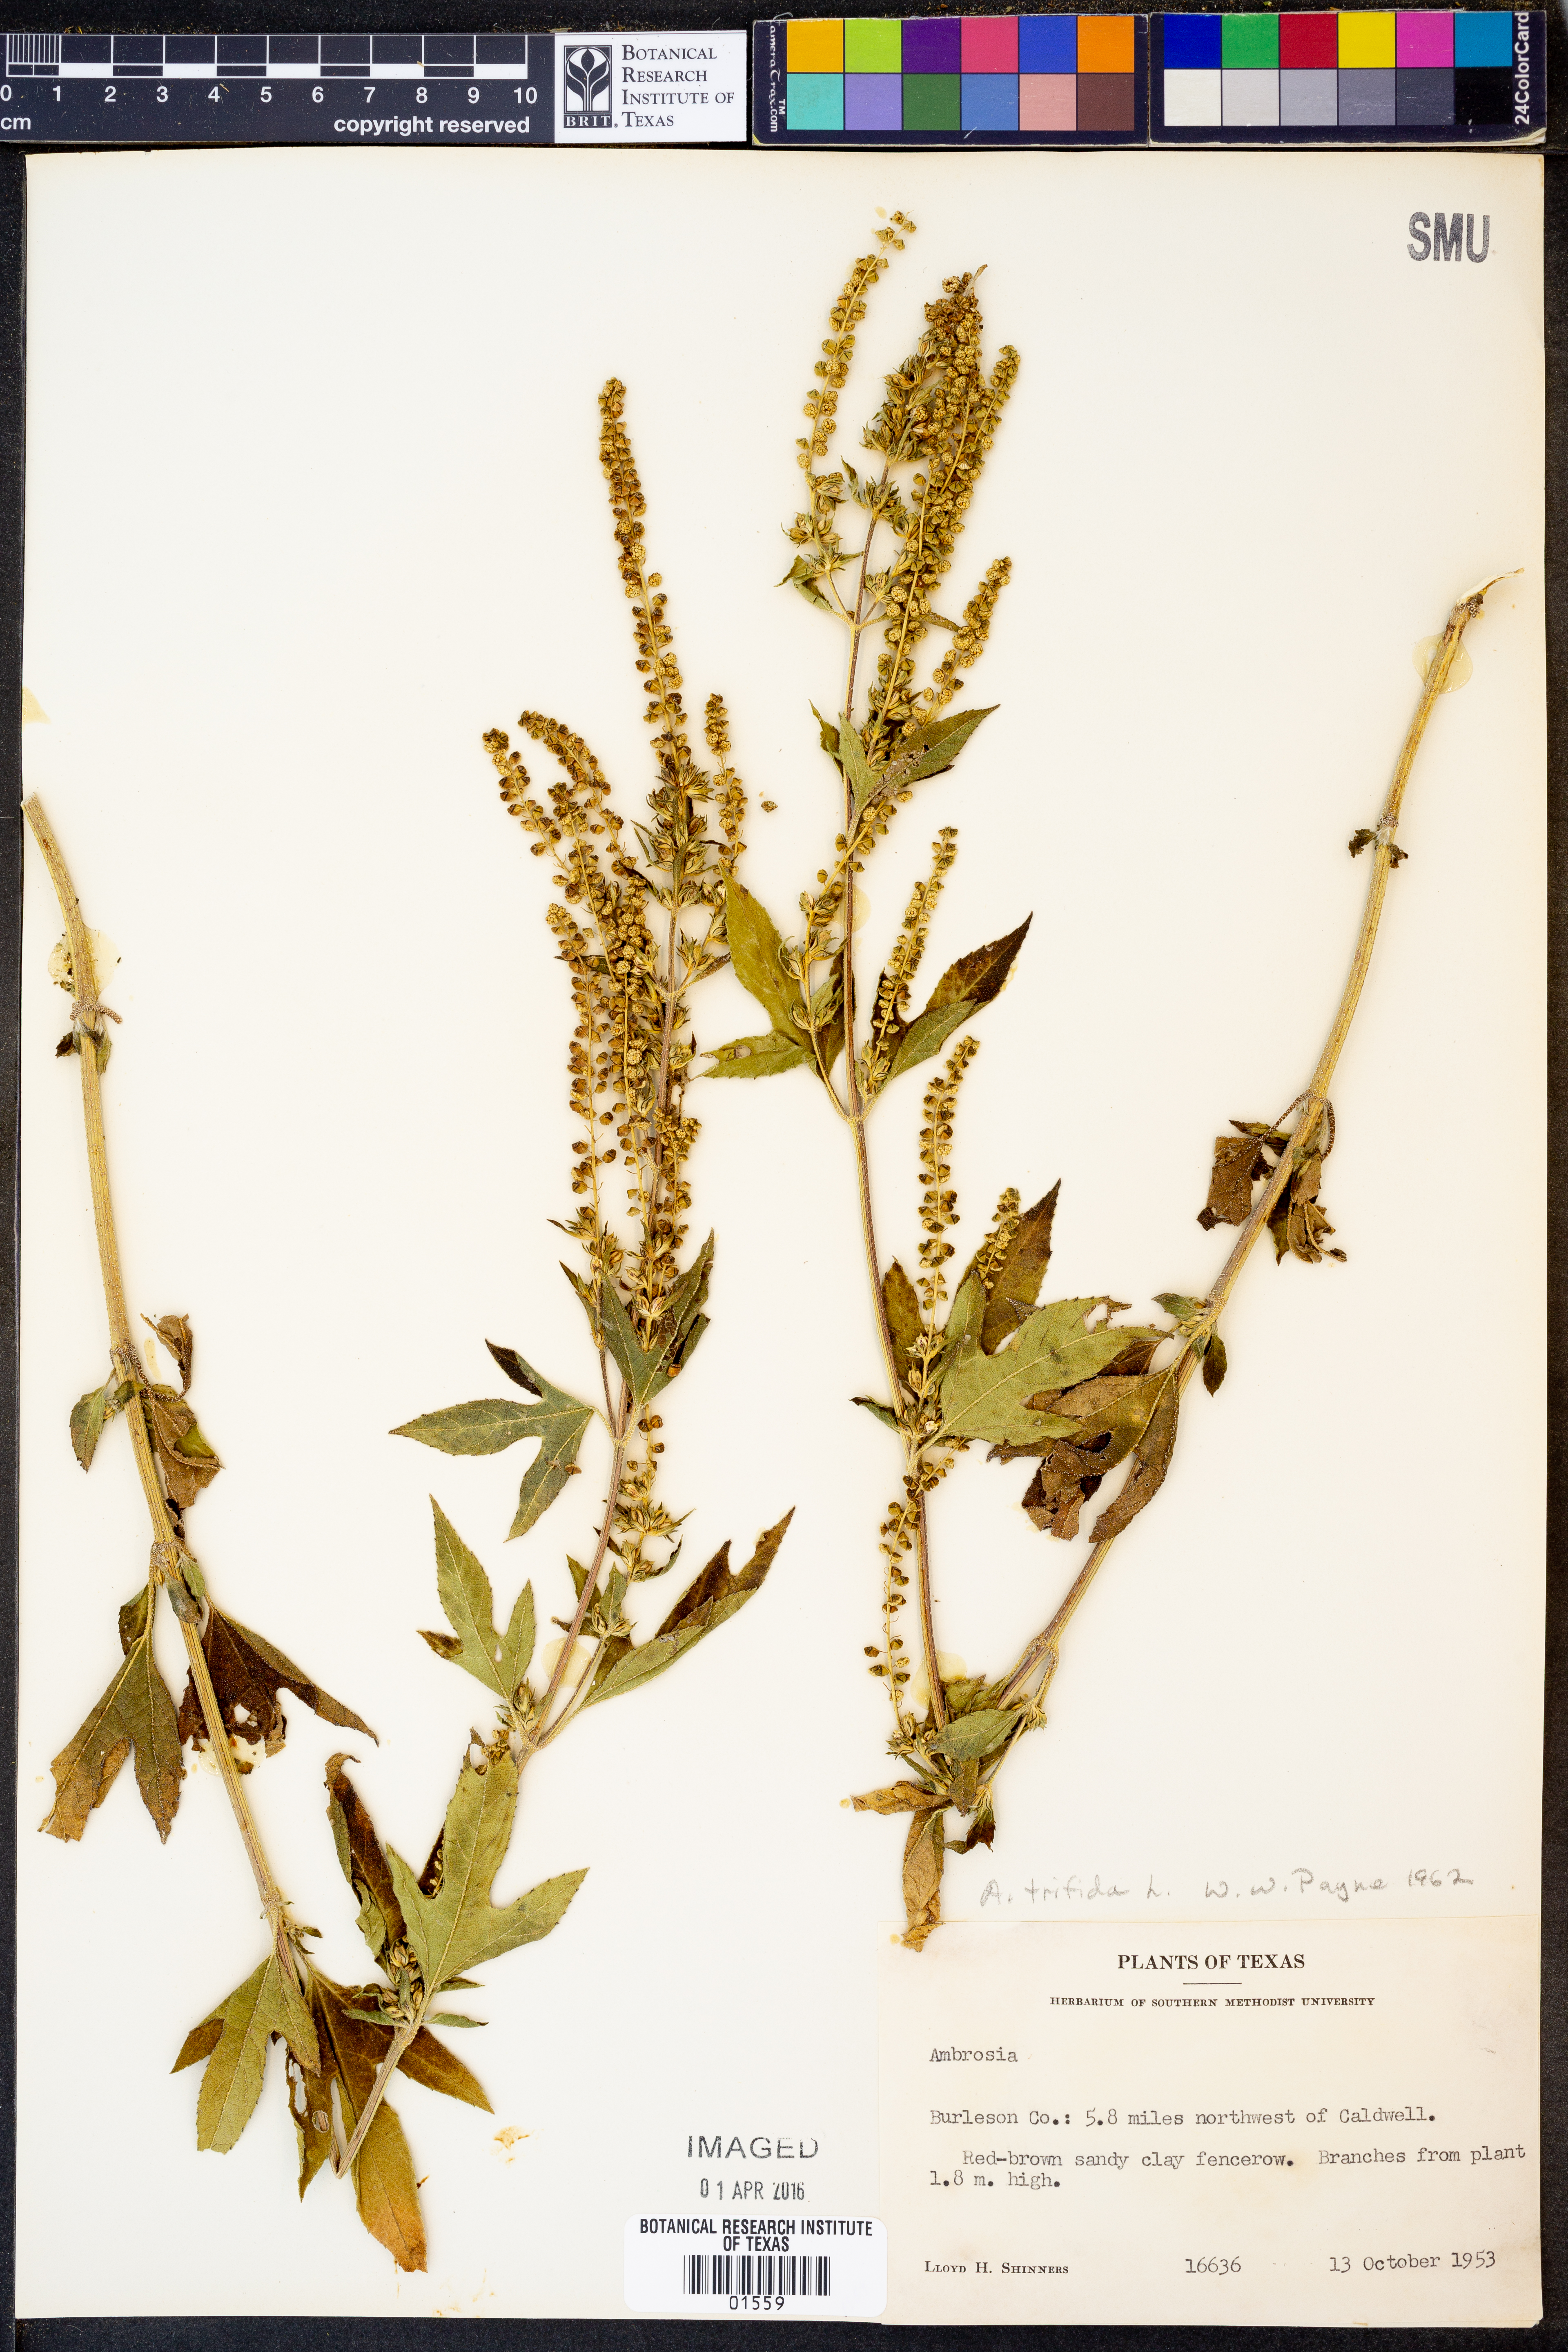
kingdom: Plantae
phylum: Tracheophyta
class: Magnoliopsida
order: Asterales
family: Asteraceae
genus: Ambrosia
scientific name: Ambrosia trifida
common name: Giant ragweed
